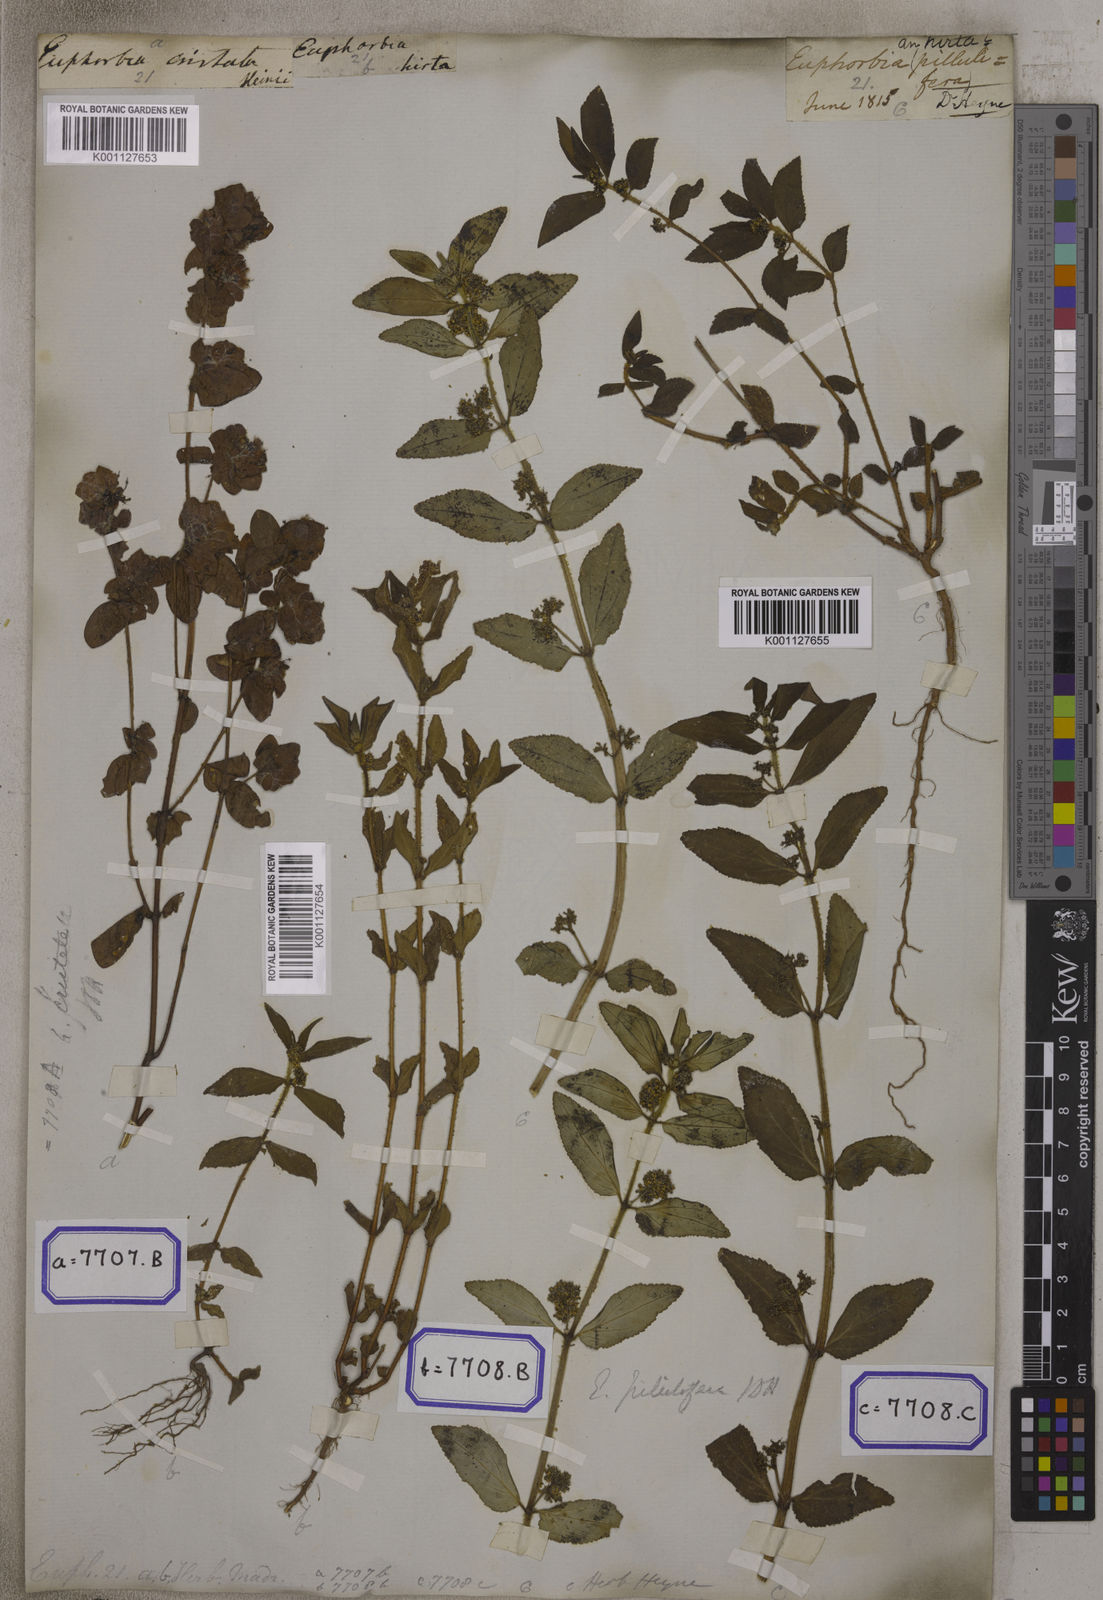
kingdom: Plantae
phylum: Tracheophyta
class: Magnoliopsida
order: Malpighiales
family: Euphorbiaceae
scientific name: Euphorbiaceae
